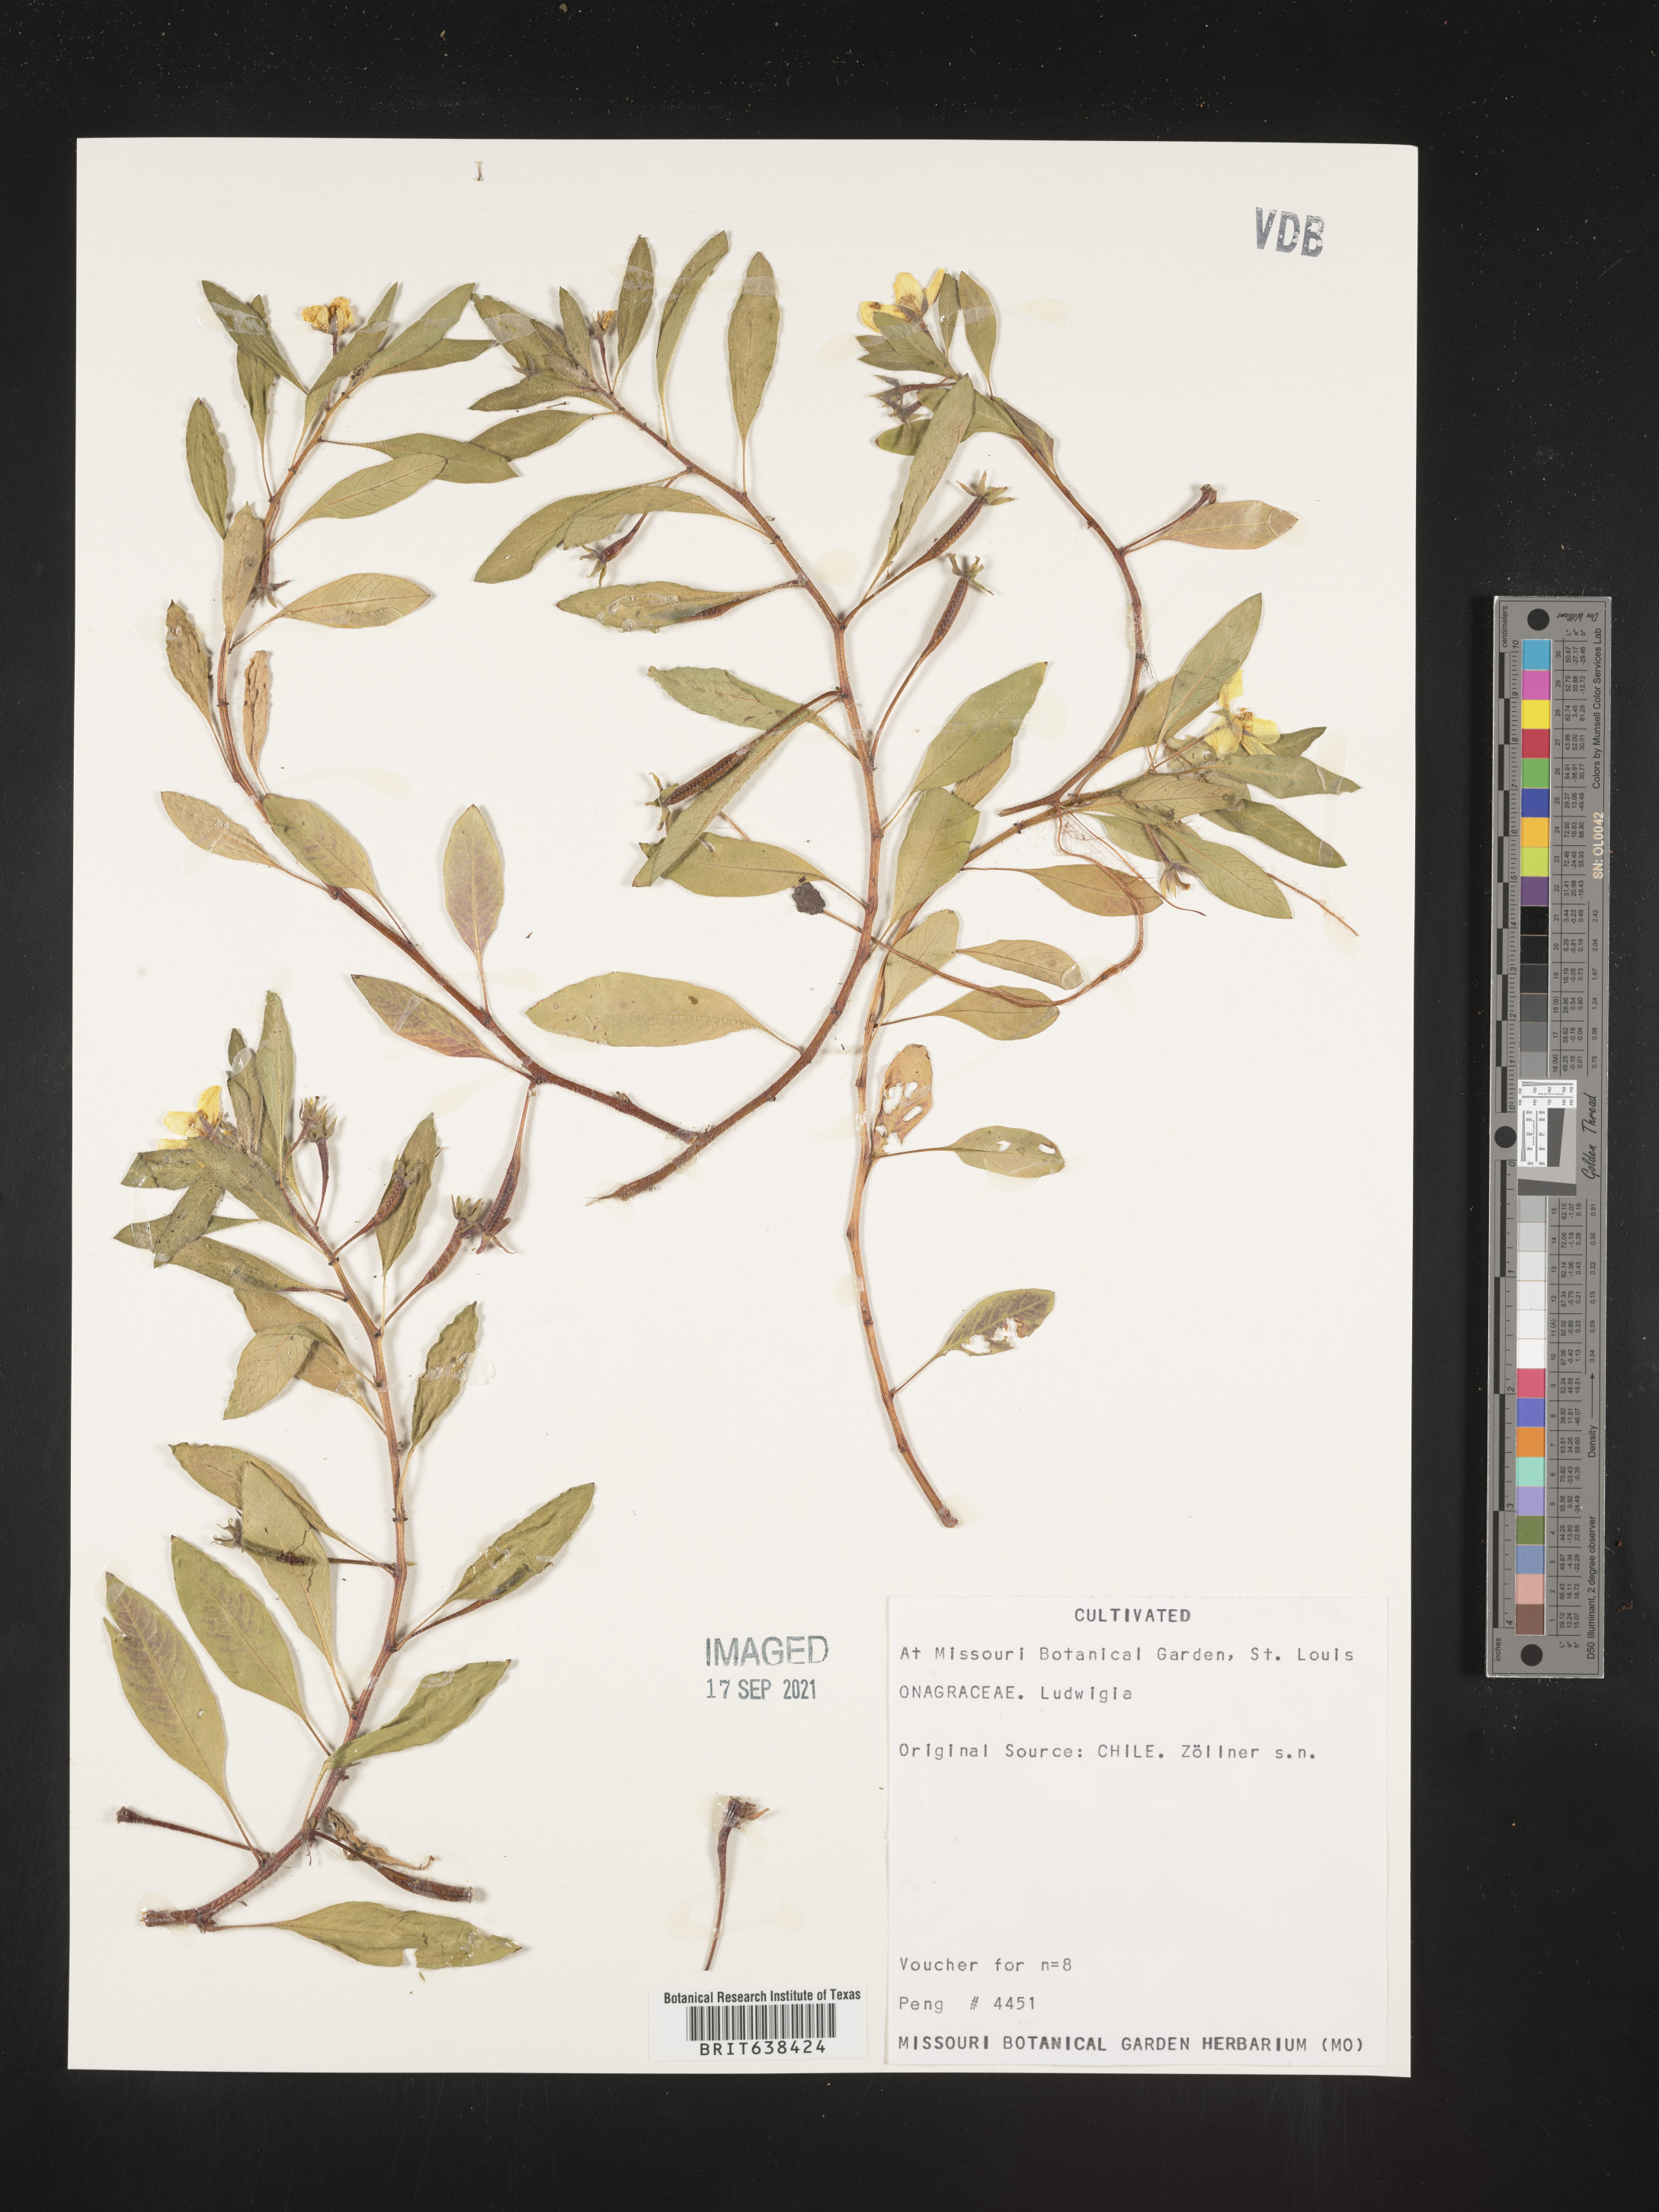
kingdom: Plantae
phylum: Tracheophyta
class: Magnoliopsida
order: Myrtales
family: Onagraceae
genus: Ludwigia
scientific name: Ludwigia
